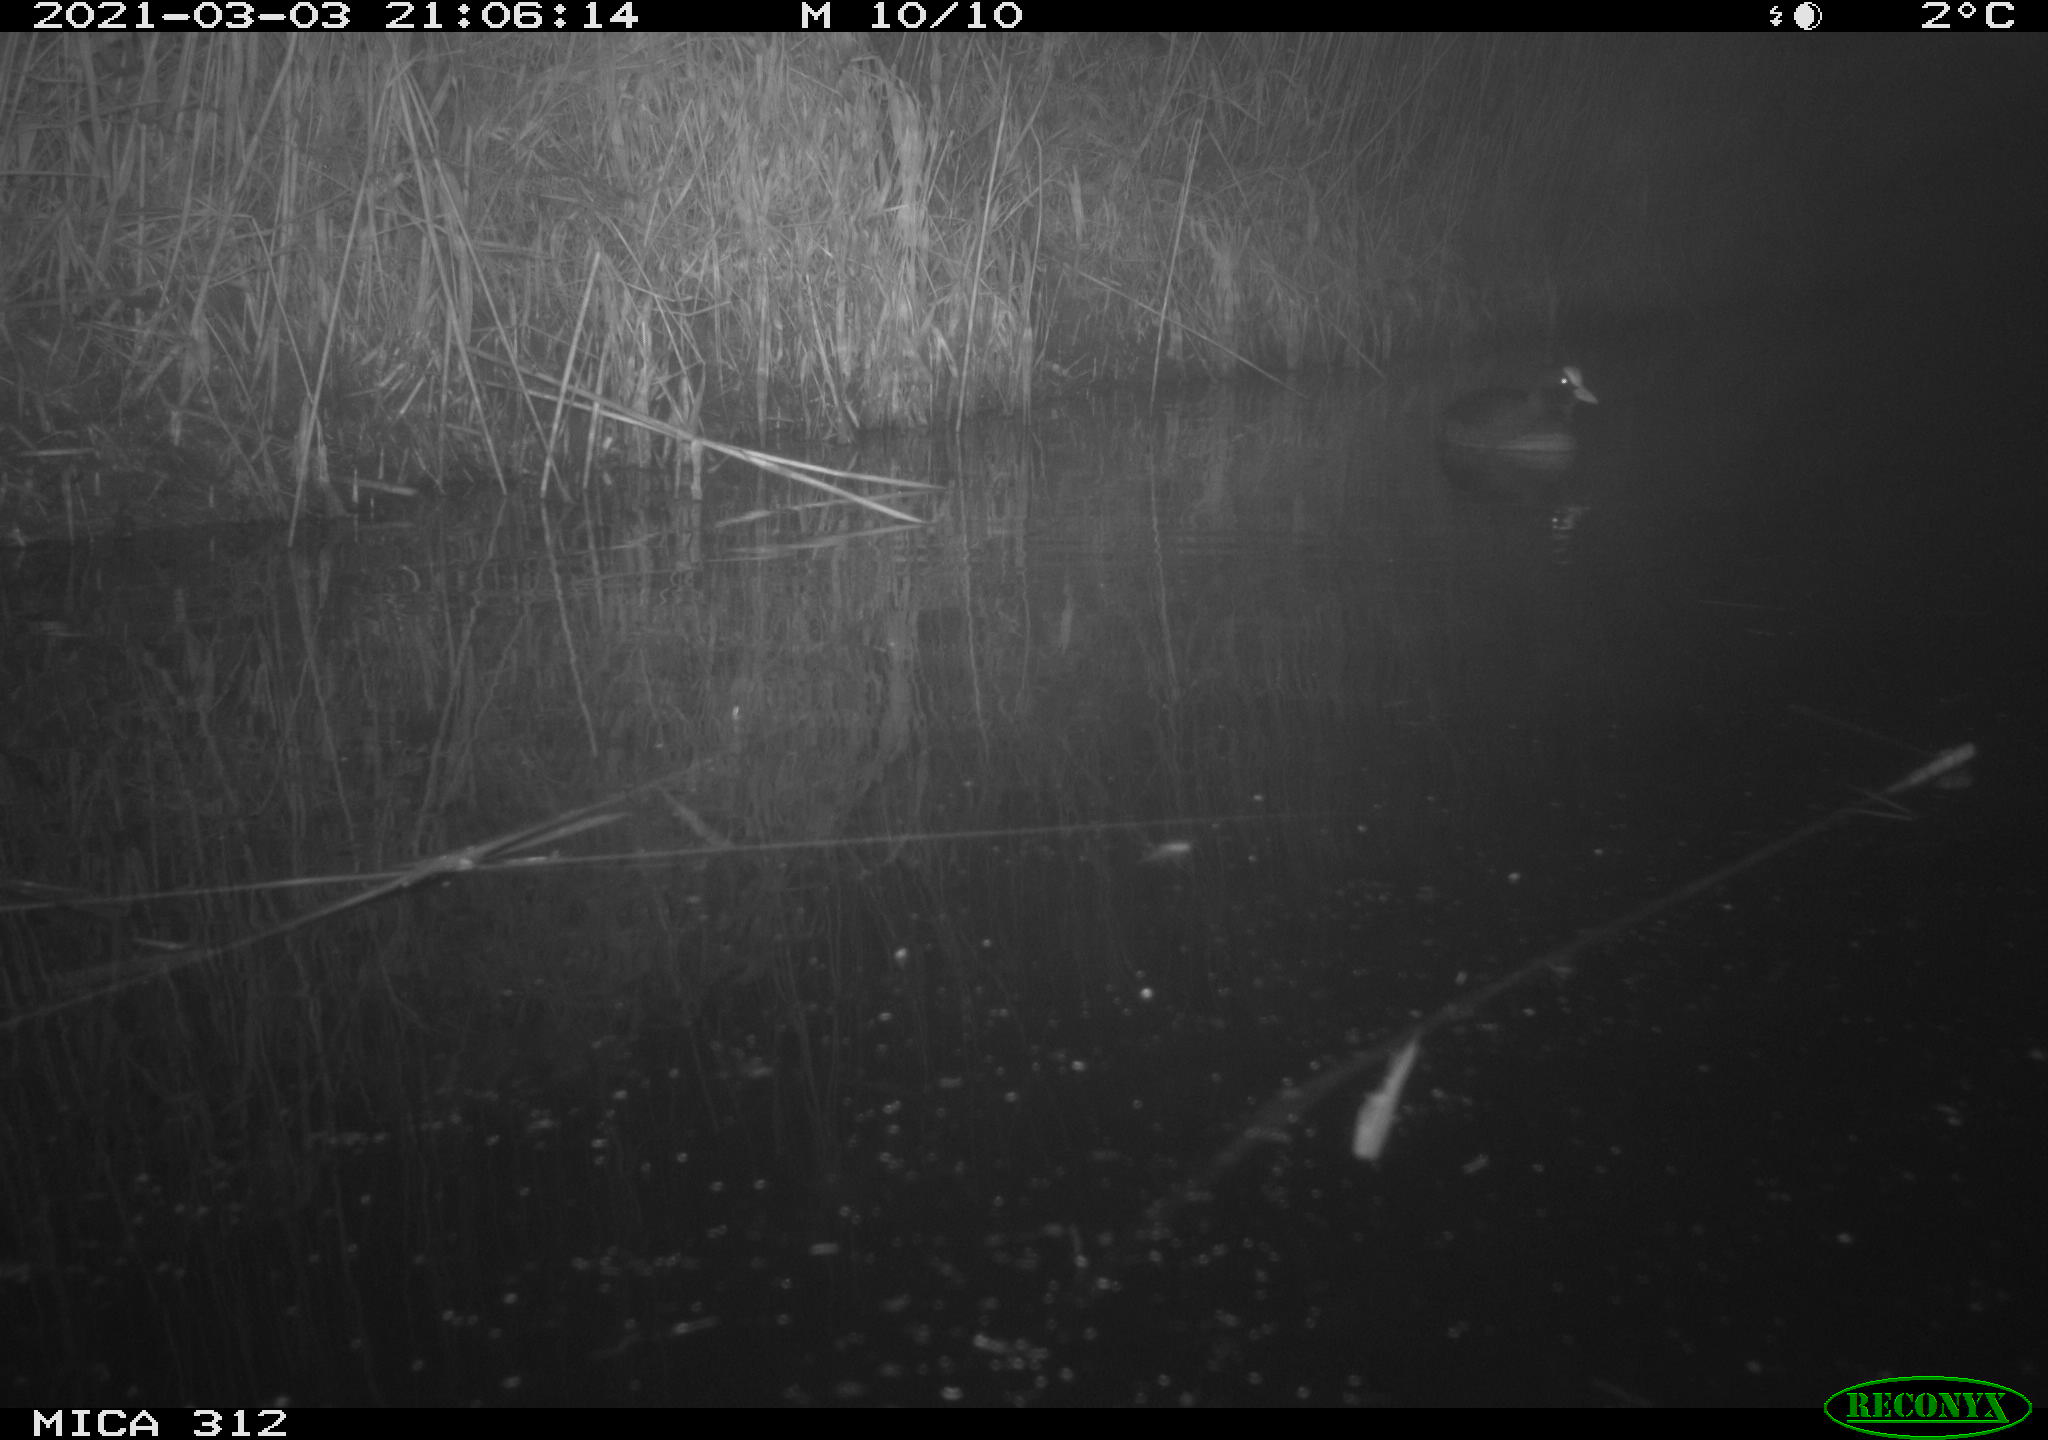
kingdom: Animalia
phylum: Chordata
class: Aves
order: Gruiformes
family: Rallidae
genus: Gallinula
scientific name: Gallinula chloropus
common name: Common moorhen
